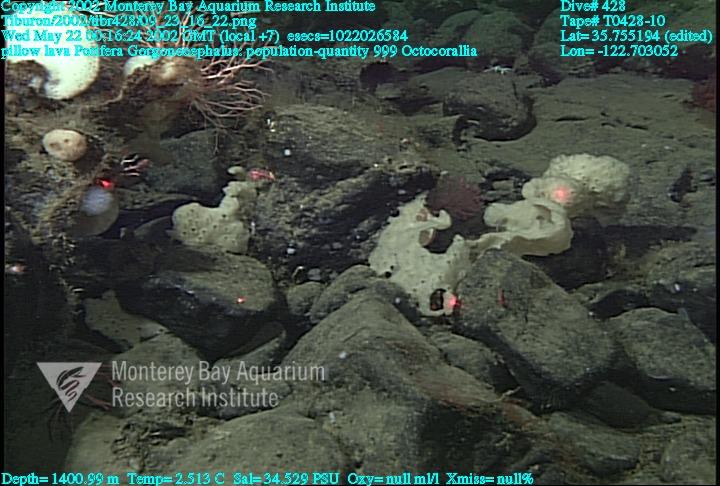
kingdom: Animalia
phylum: Porifera
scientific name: Porifera
